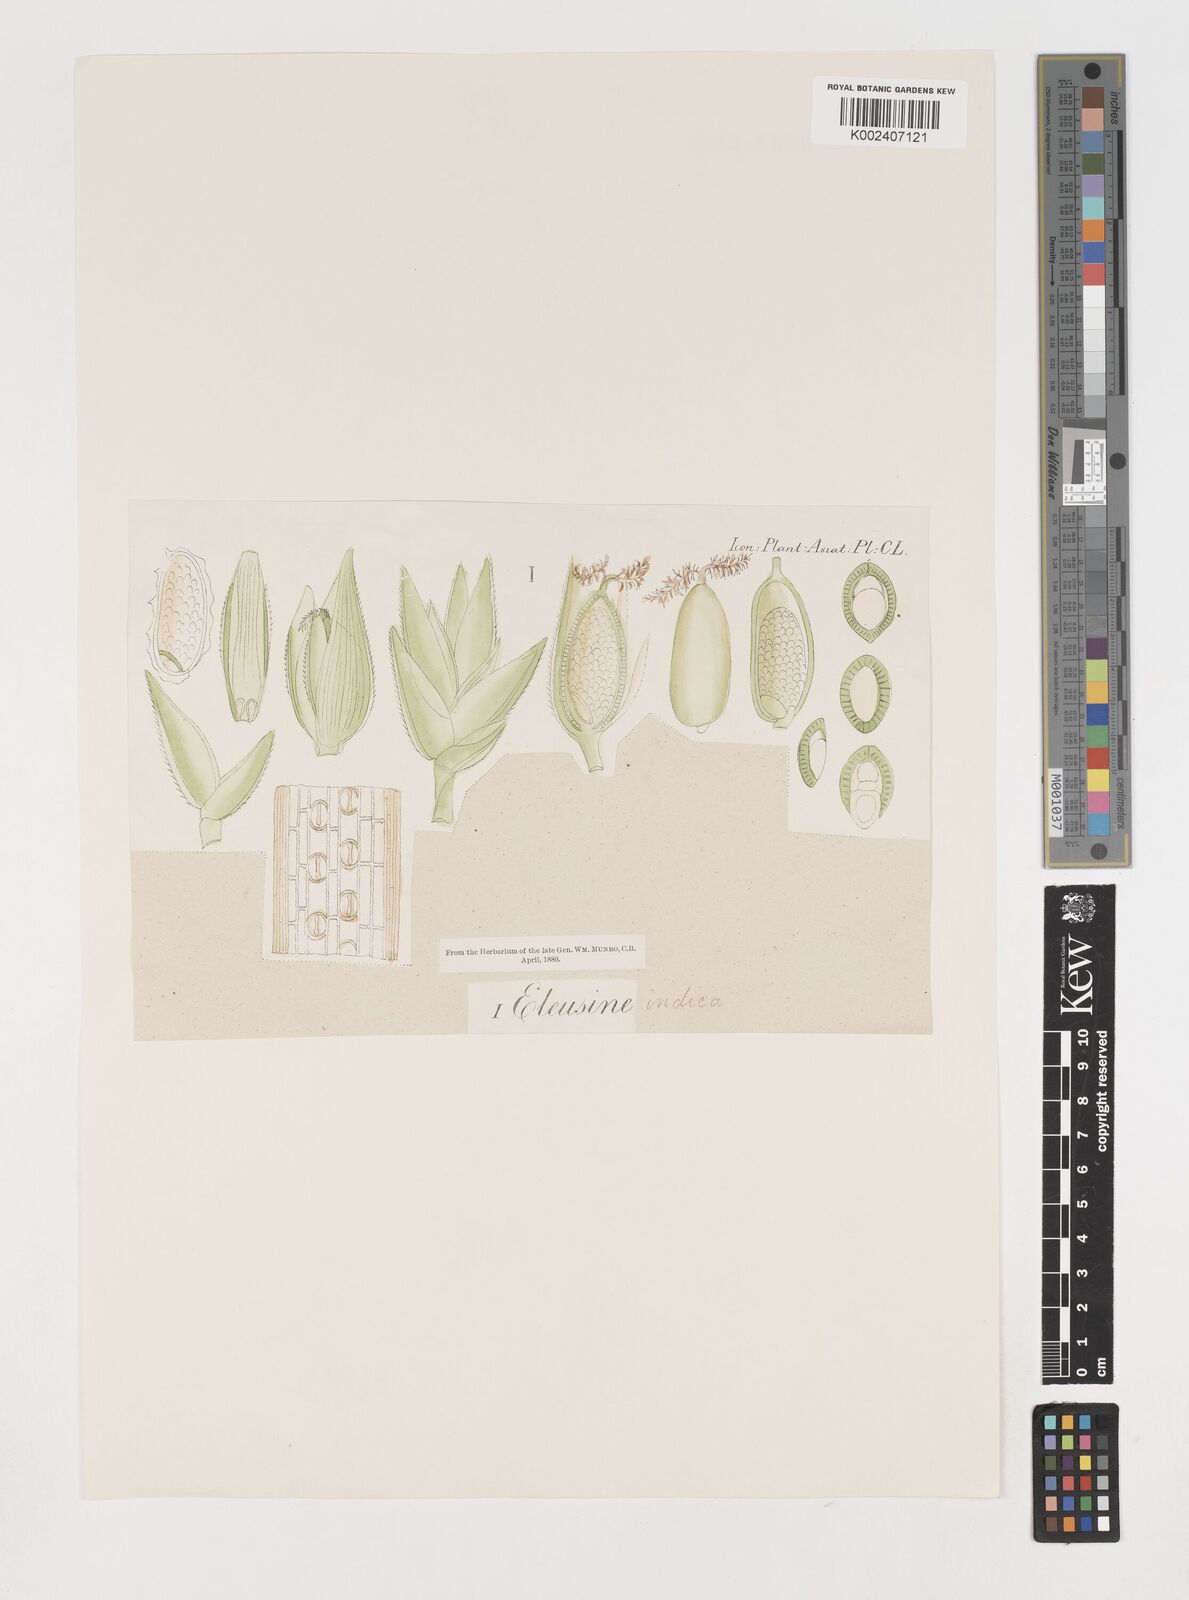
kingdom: Plantae
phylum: Tracheophyta
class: Liliopsida
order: Poales
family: Poaceae
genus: Eleusine
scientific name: Eleusine indica
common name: Yard-grass
